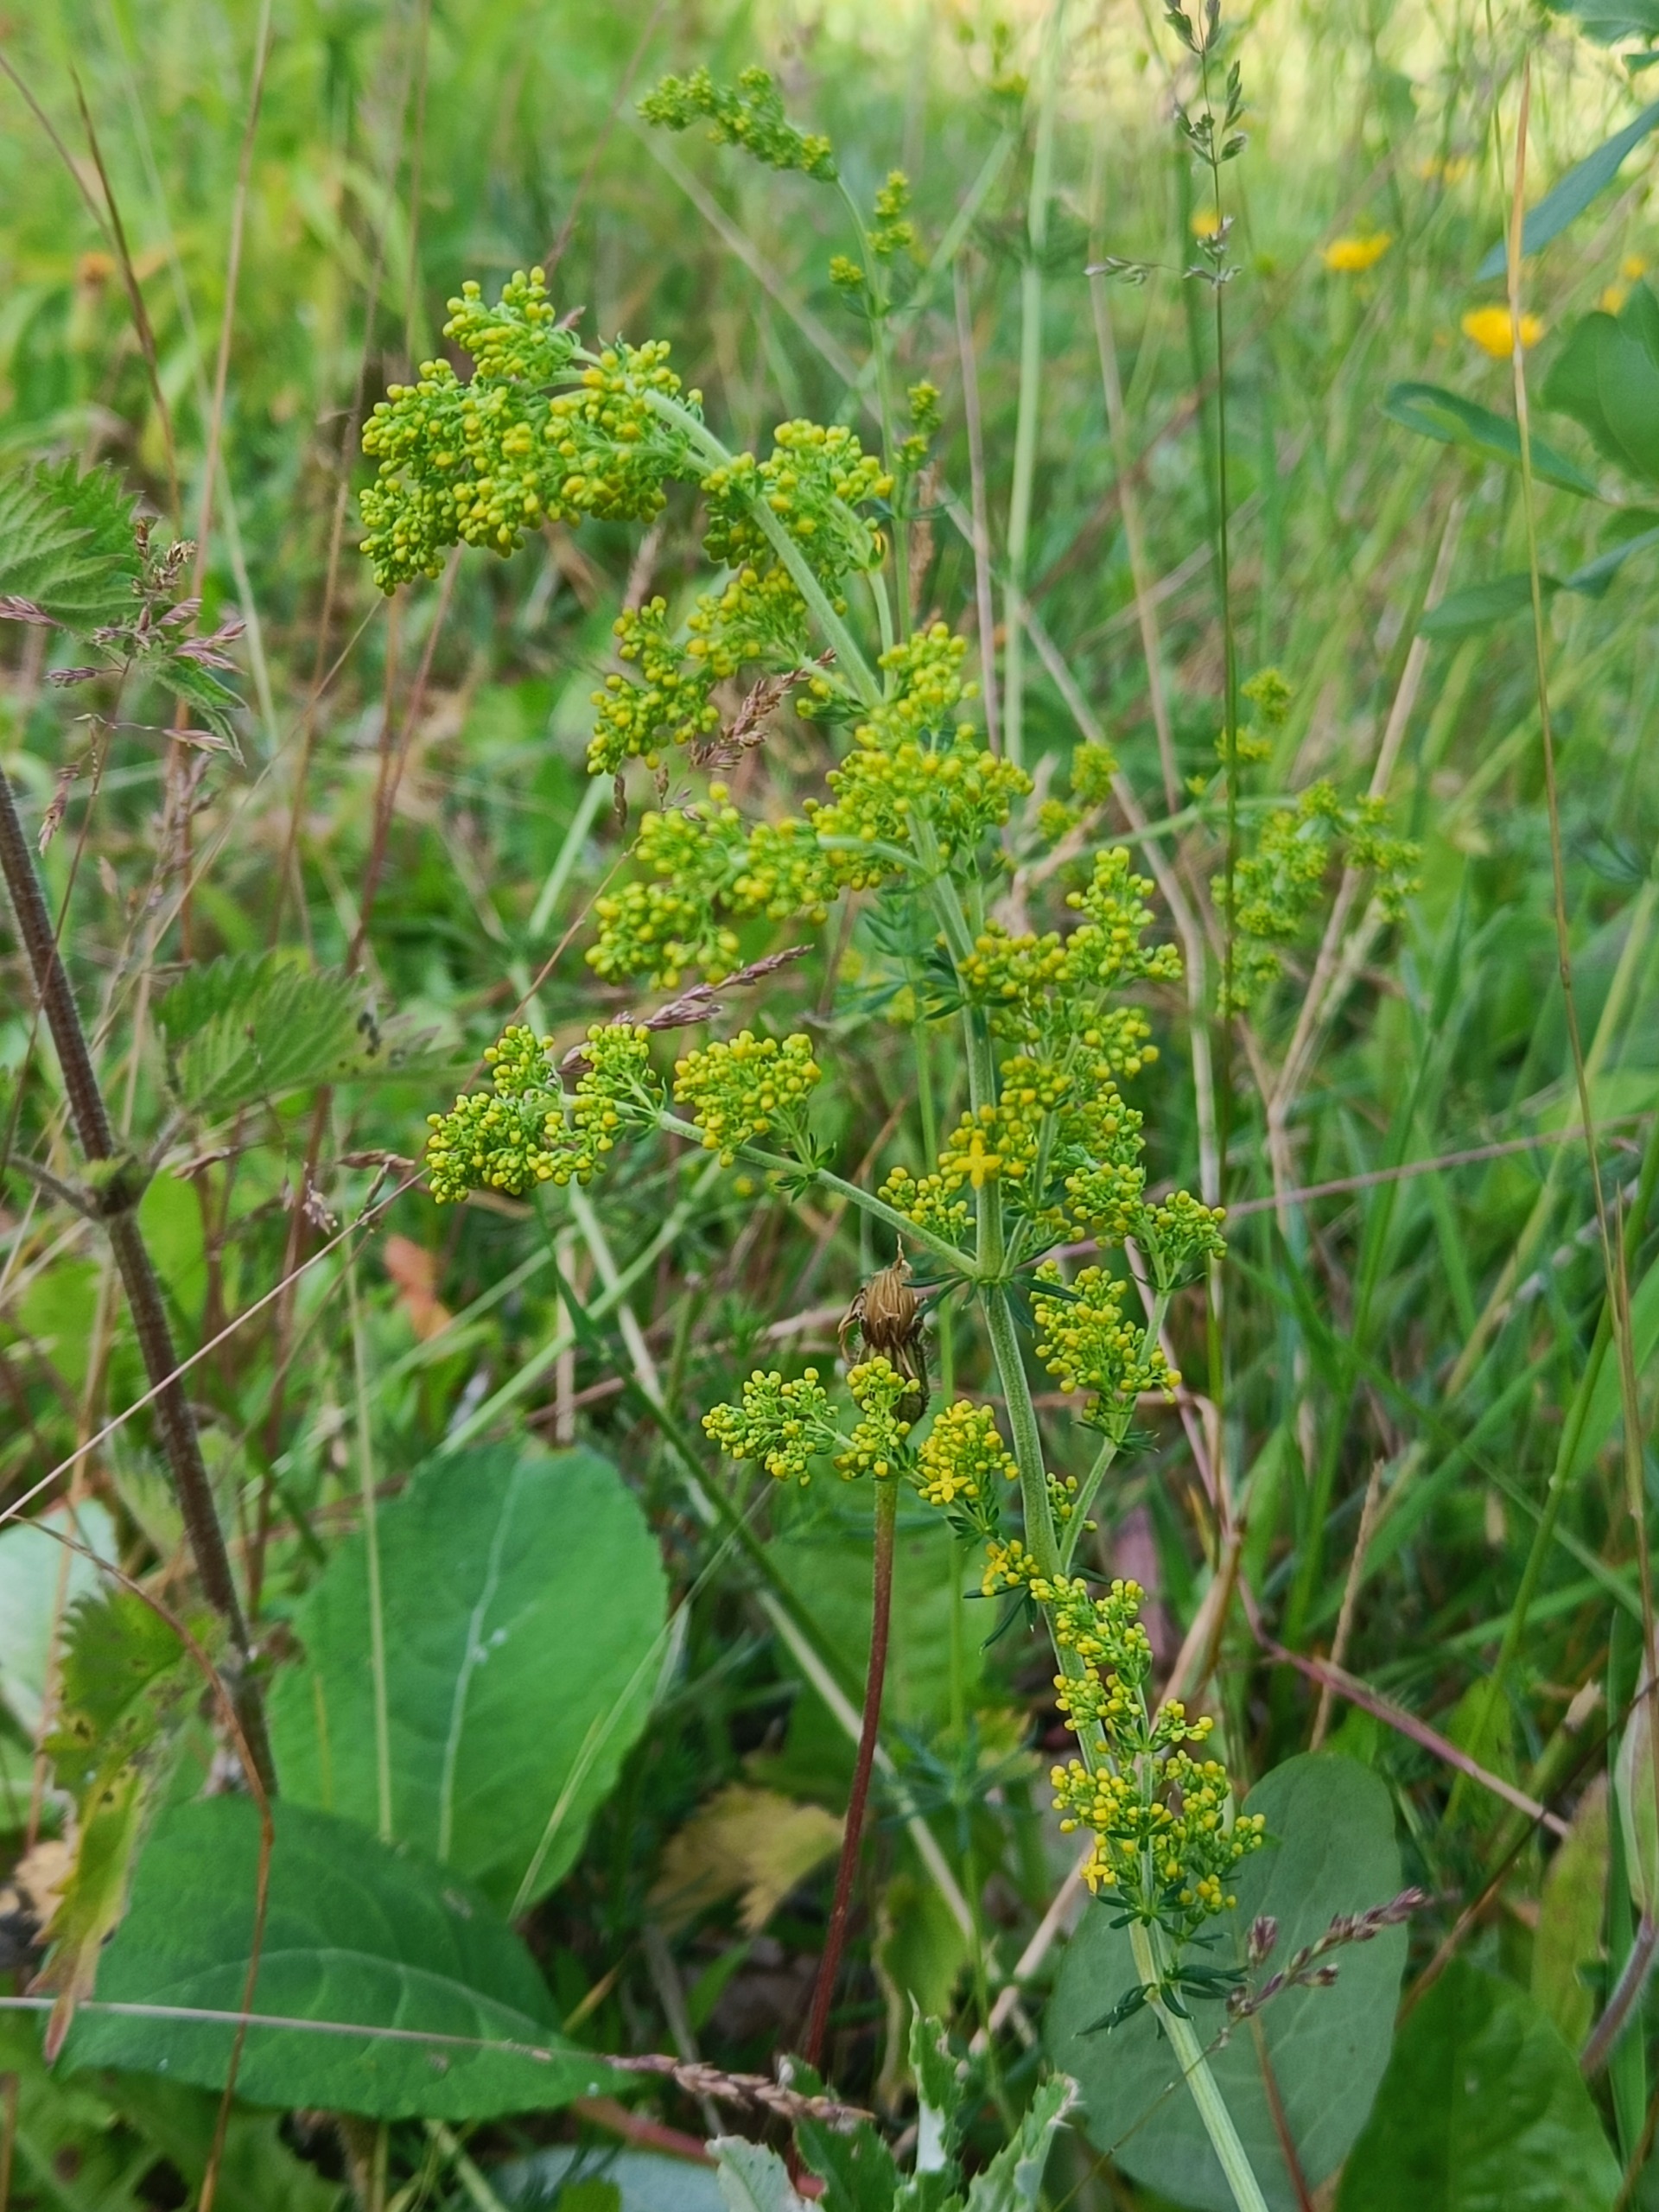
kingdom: Plantae
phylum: Tracheophyta
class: Magnoliopsida
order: Gentianales
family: Rubiaceae
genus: Galium
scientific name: Galium verum
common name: Gul snerre
